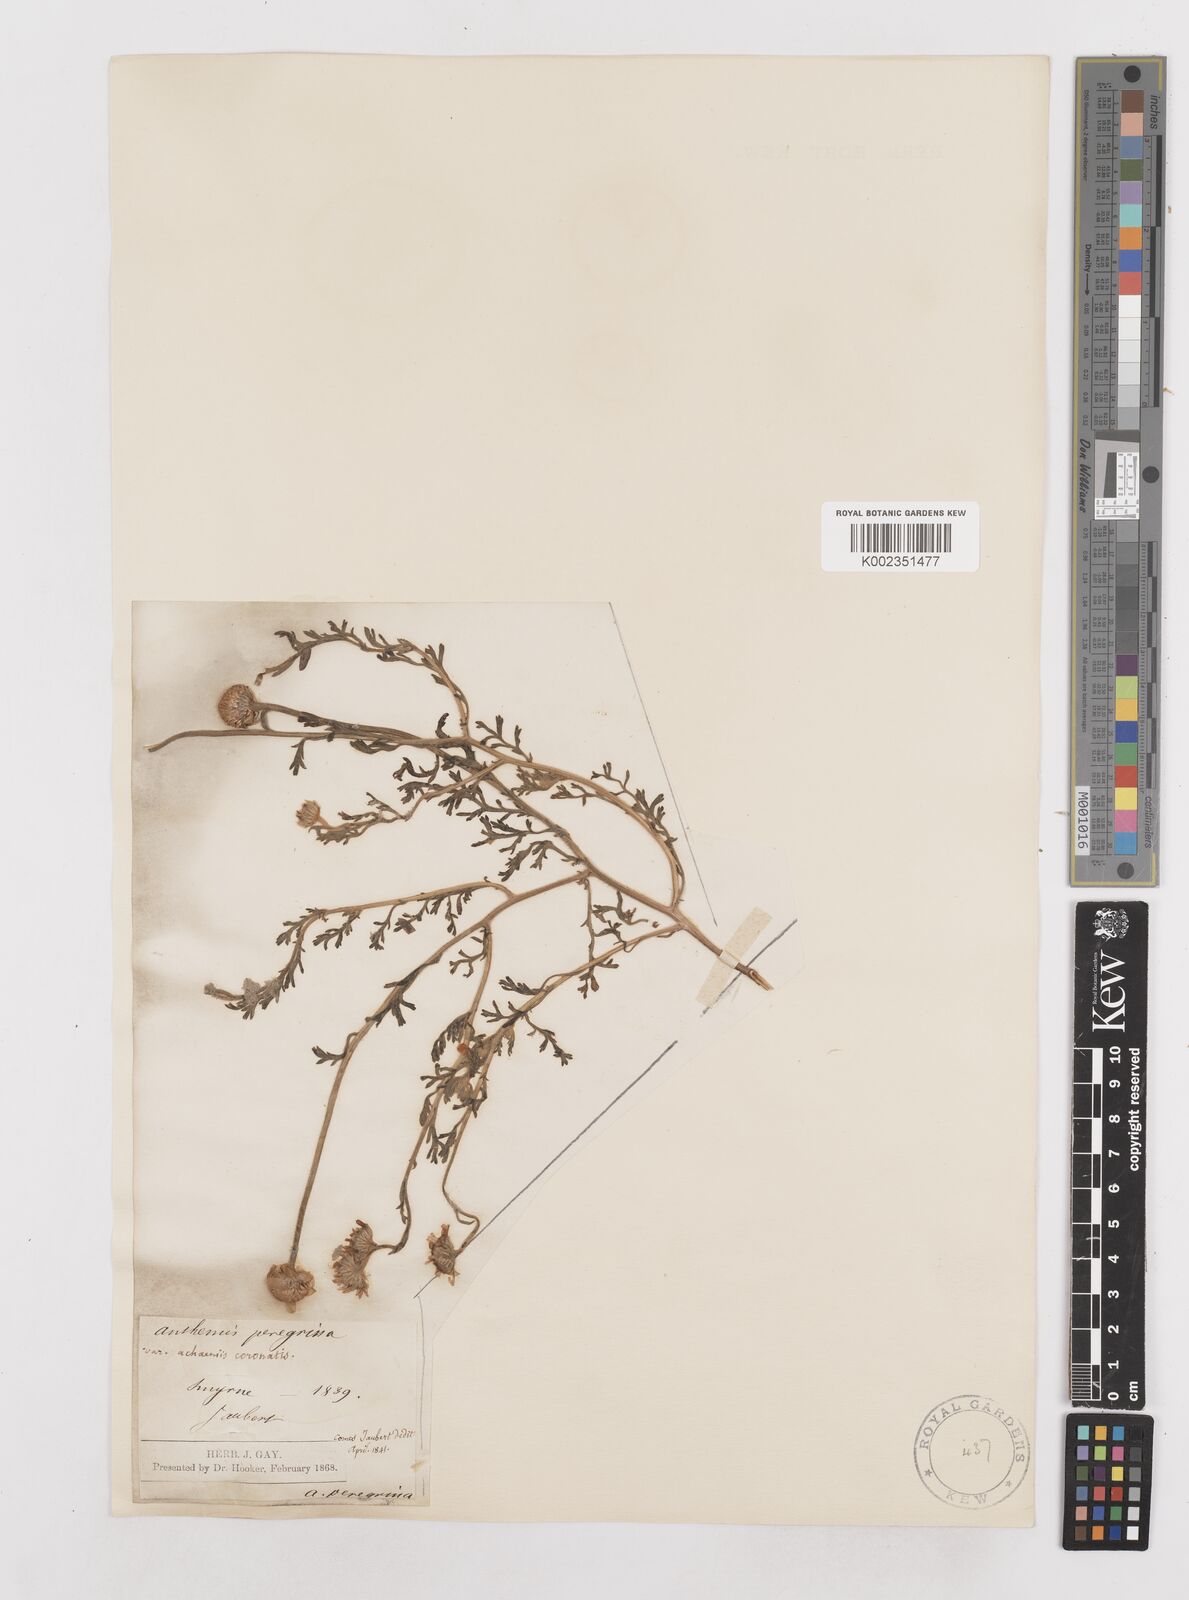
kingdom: Plantae
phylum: Tracheophyta
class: Magnoliopsida
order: Asterales
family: Asteraceae
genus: Anthemis
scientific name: Anthemis auriculata
